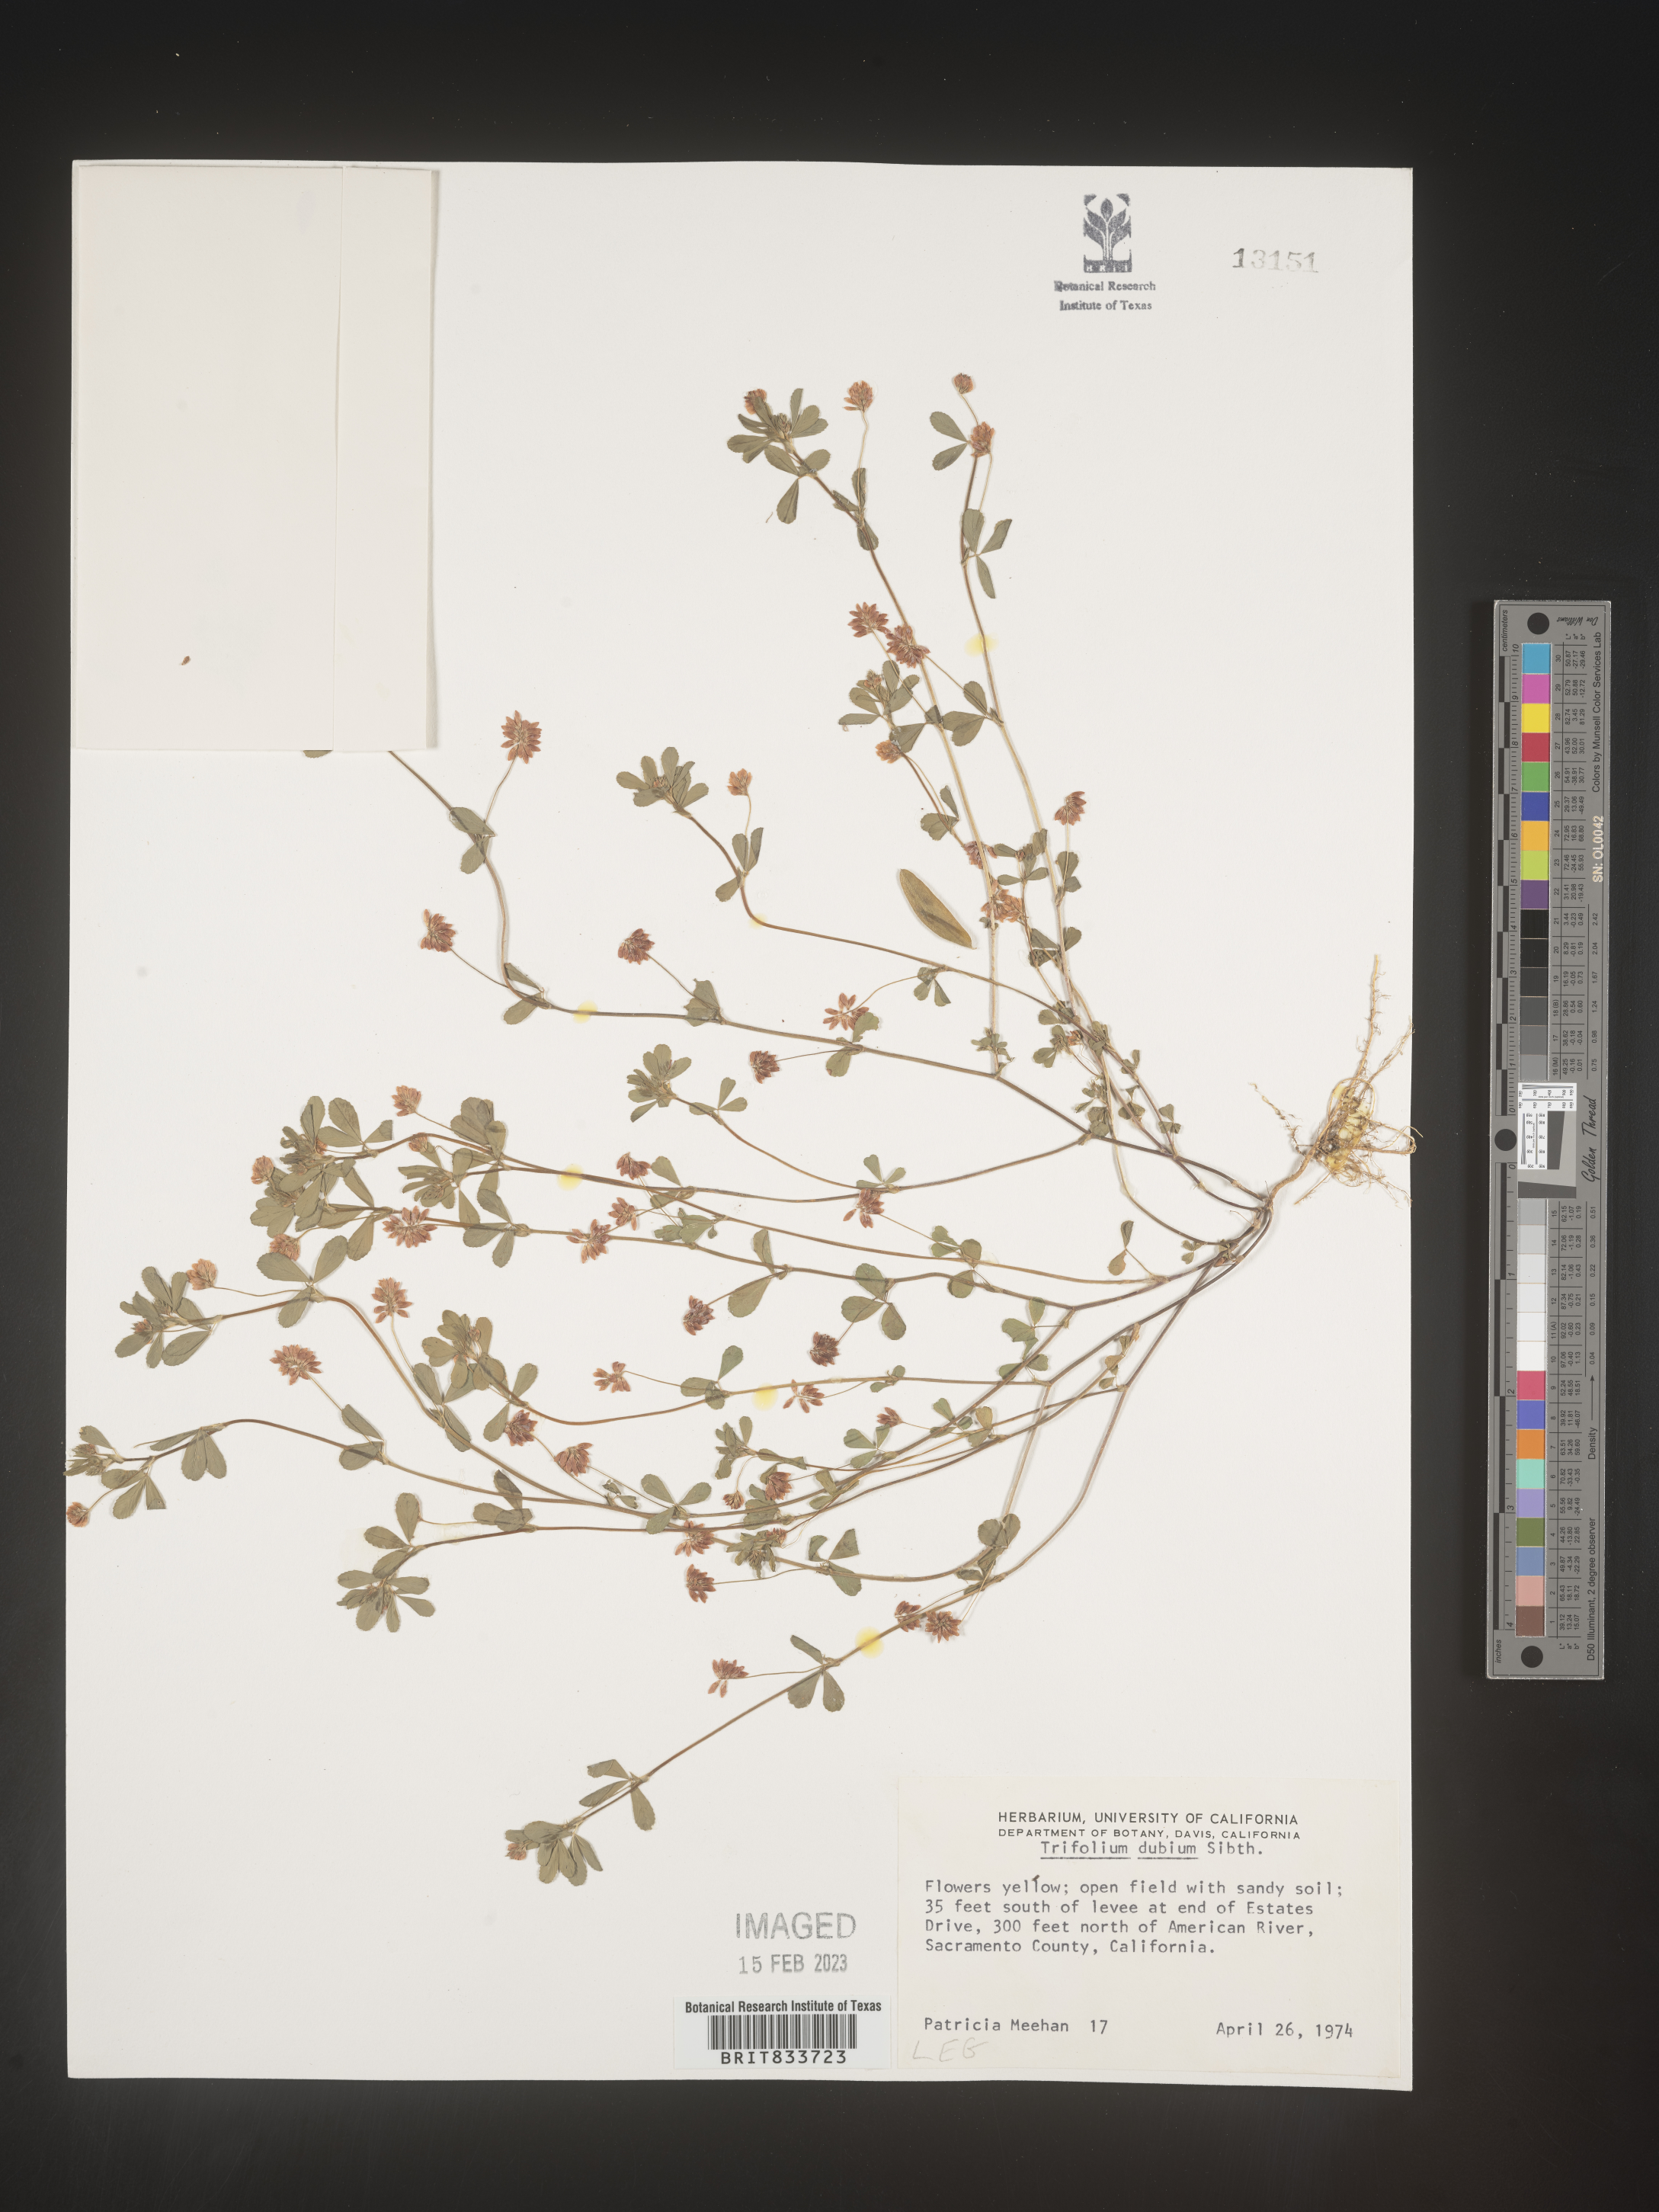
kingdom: Plantae
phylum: Tracheophyta
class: Magnoliopsida
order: Fabales
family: Fabaceae
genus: Trifolium
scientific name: Trifolium dubium
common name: Suckling clover
